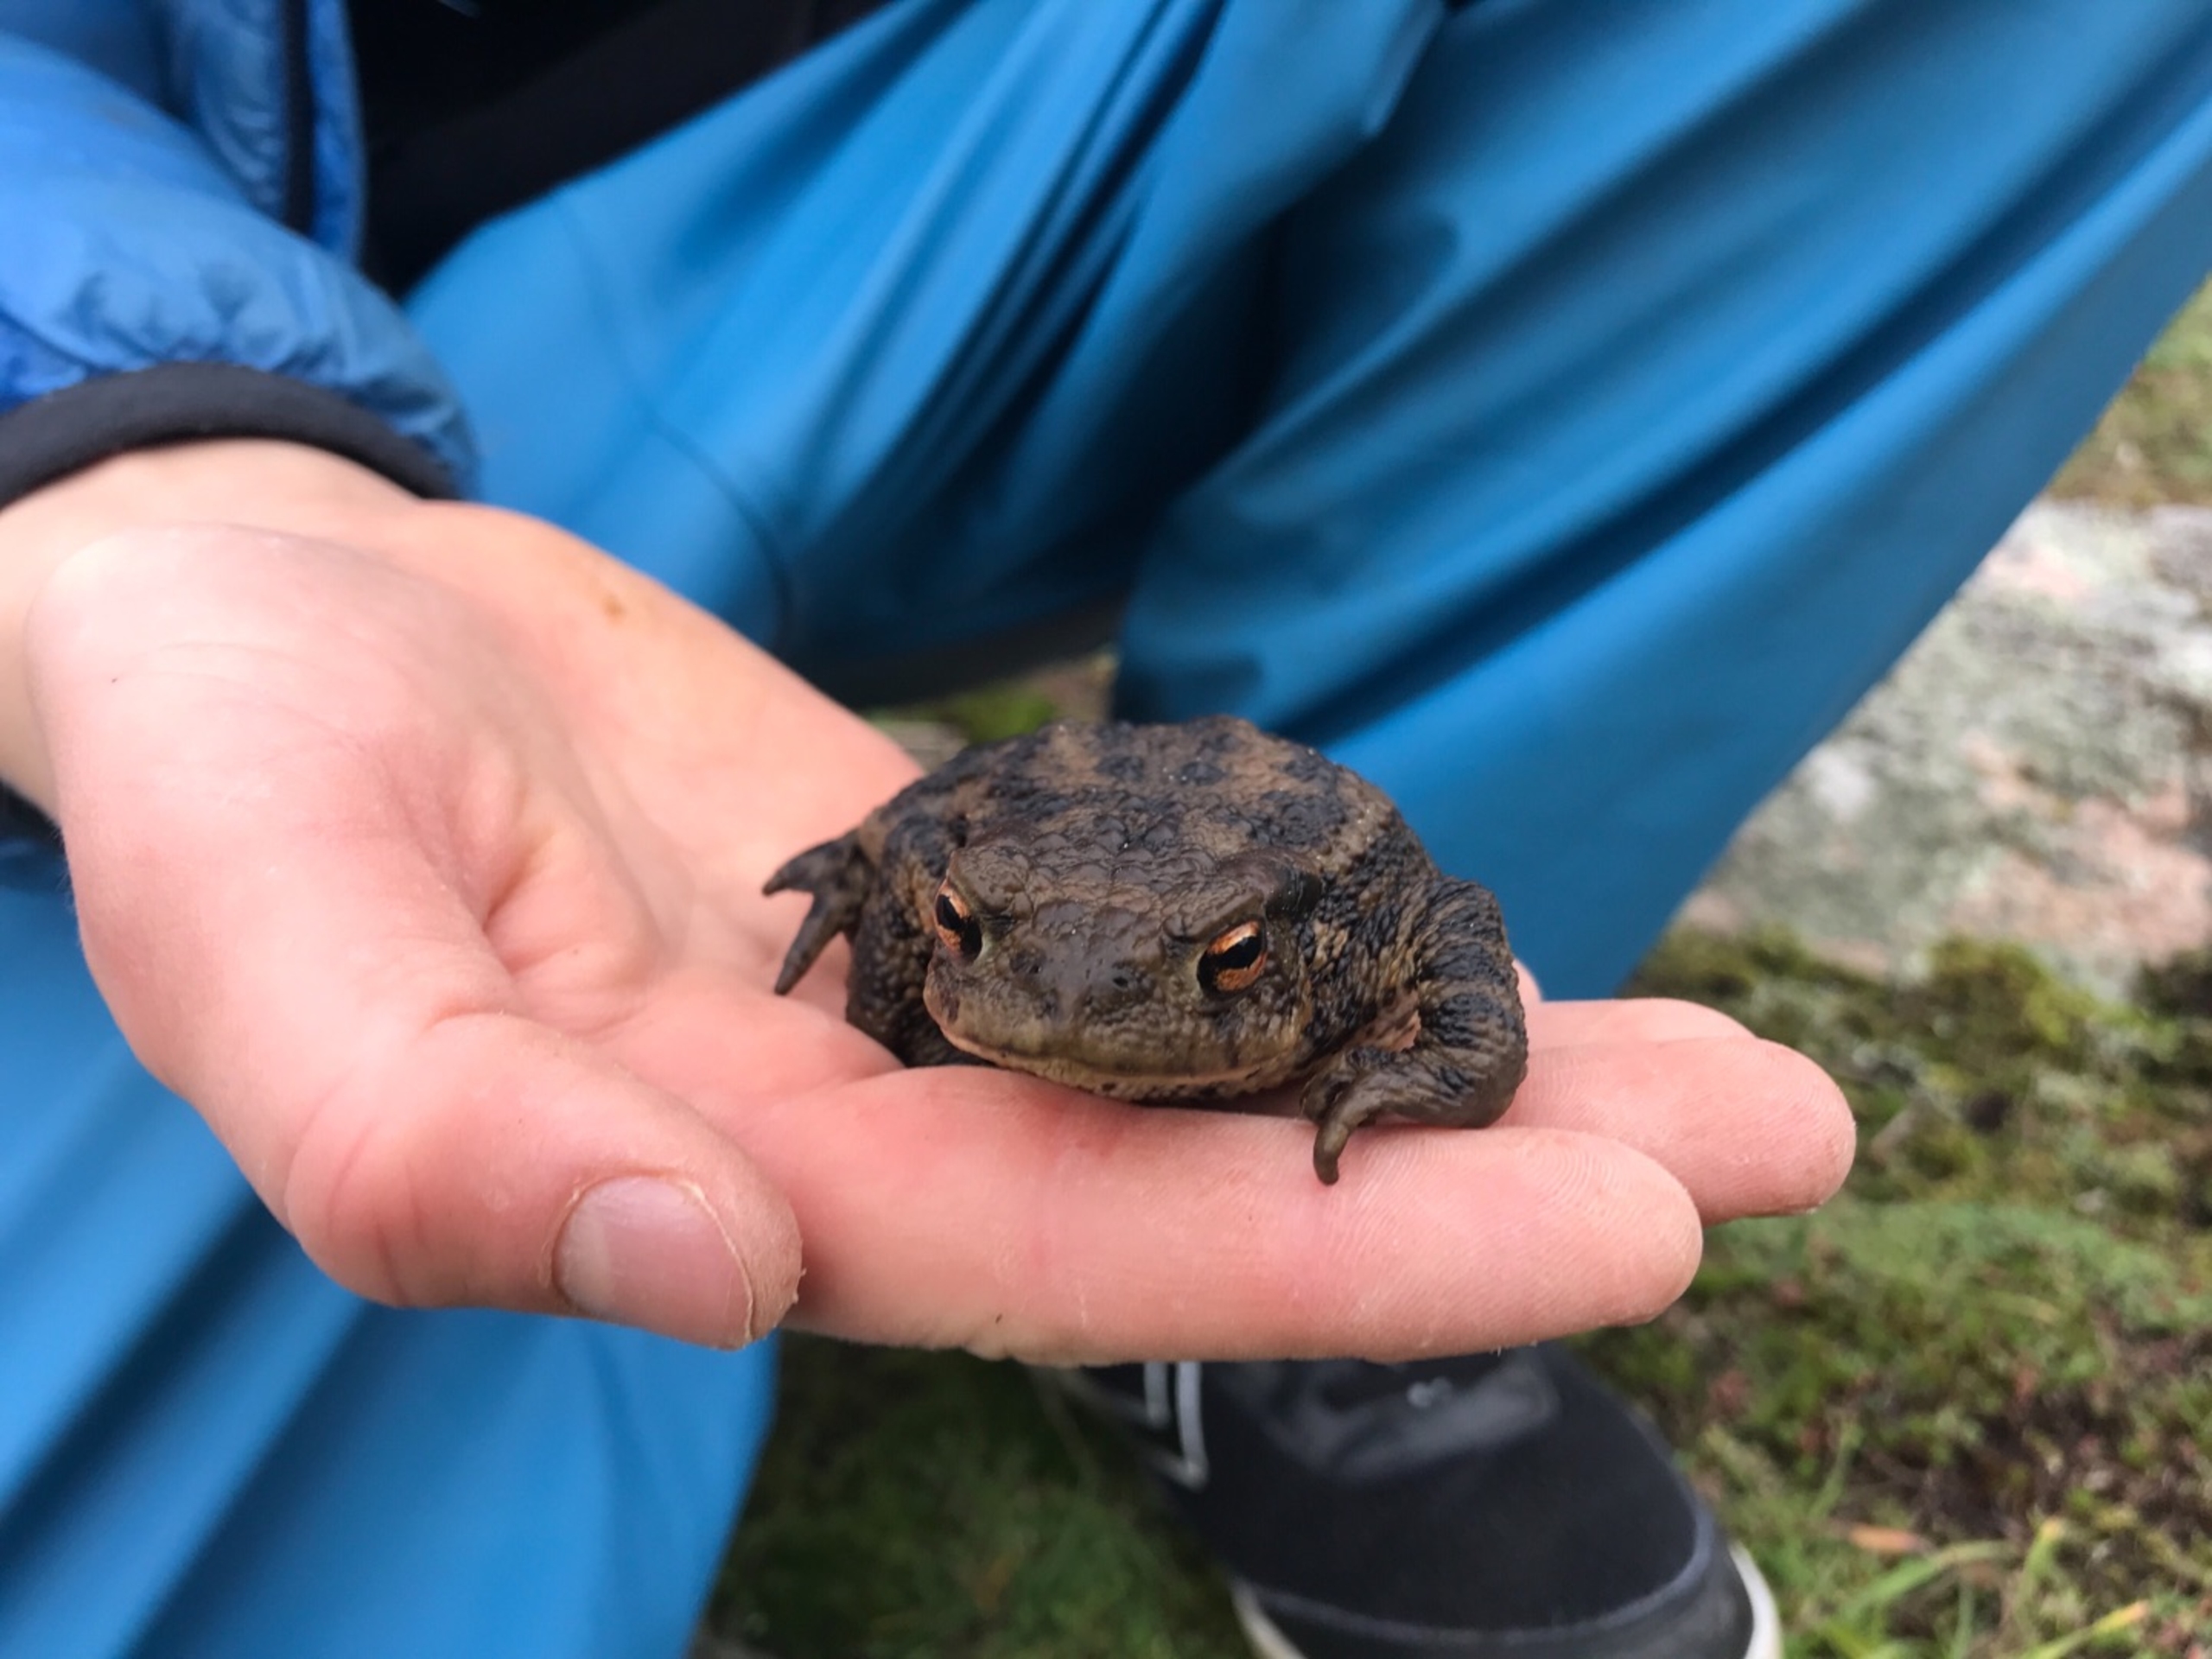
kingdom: Animalia
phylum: Chordata
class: Amphibia
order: Anura
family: Bufonidae
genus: Bufo
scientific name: Bufo bufo
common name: Skrubtudse
